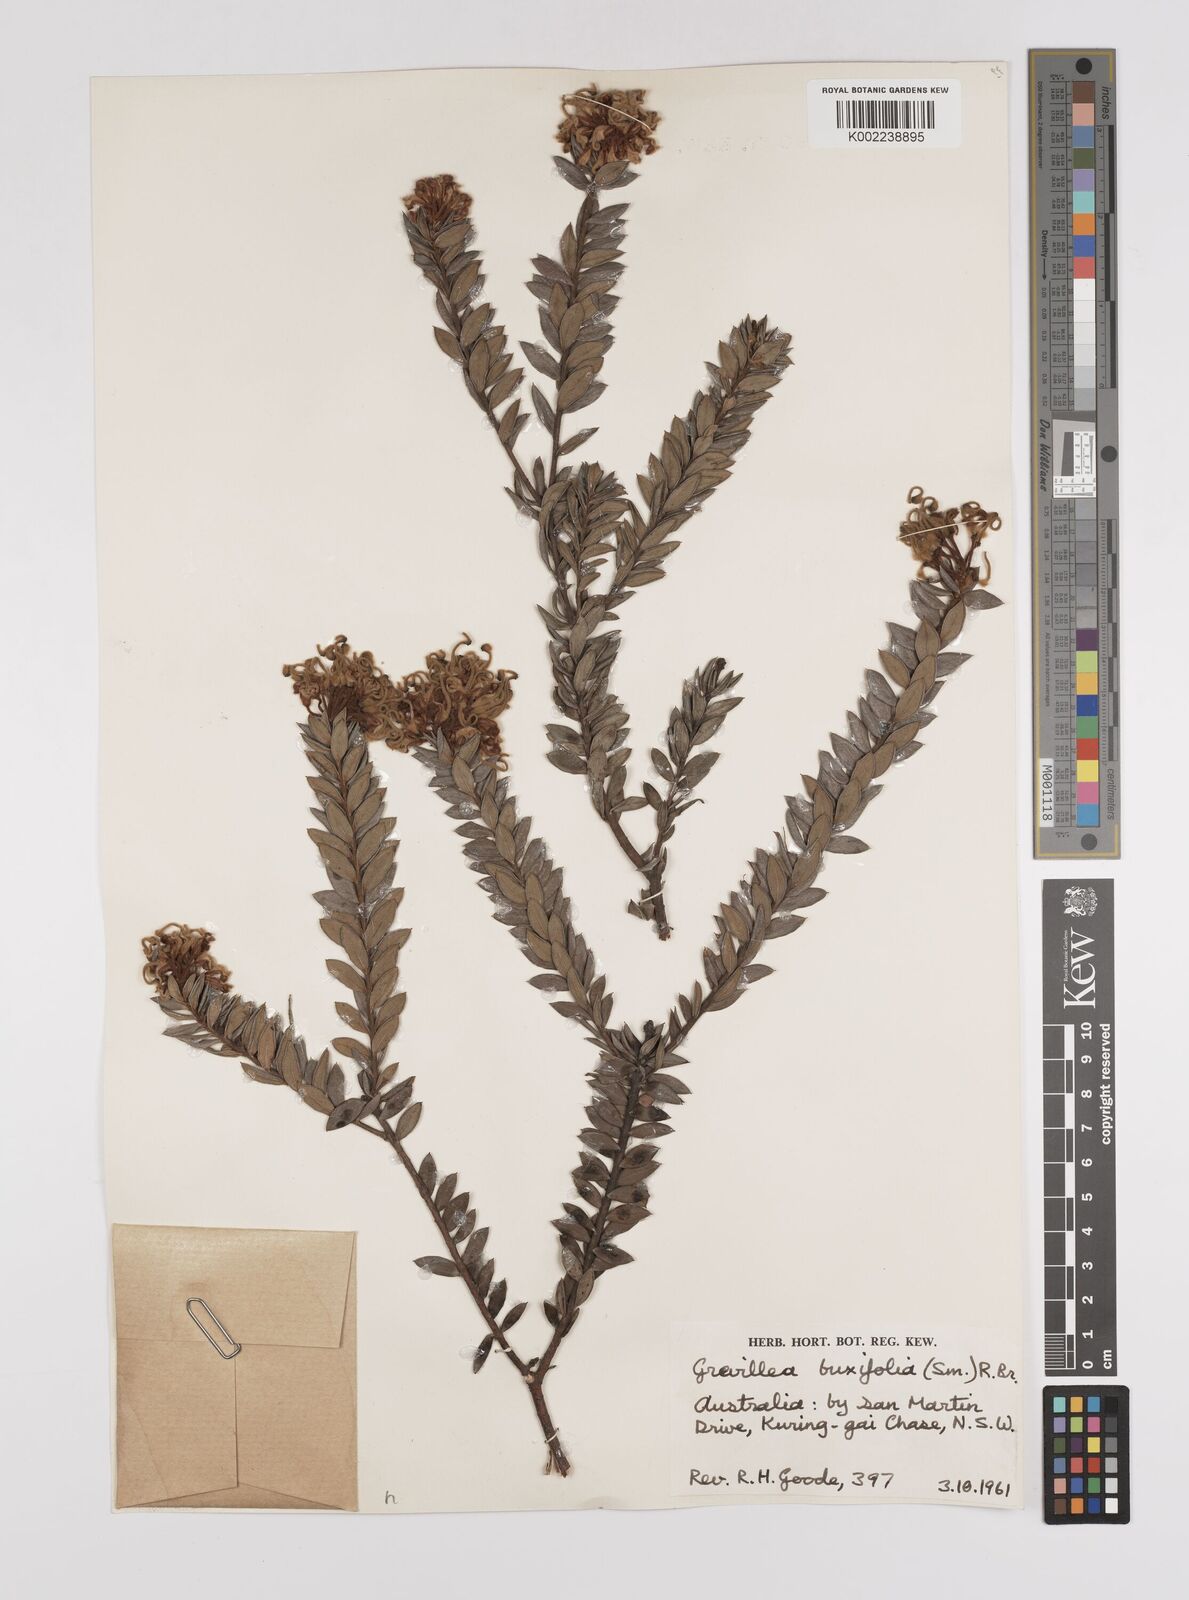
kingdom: Plantae
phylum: Tracheophyta
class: Magnoliopsida
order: Proteales
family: Proteaceae
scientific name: Proteaceae
